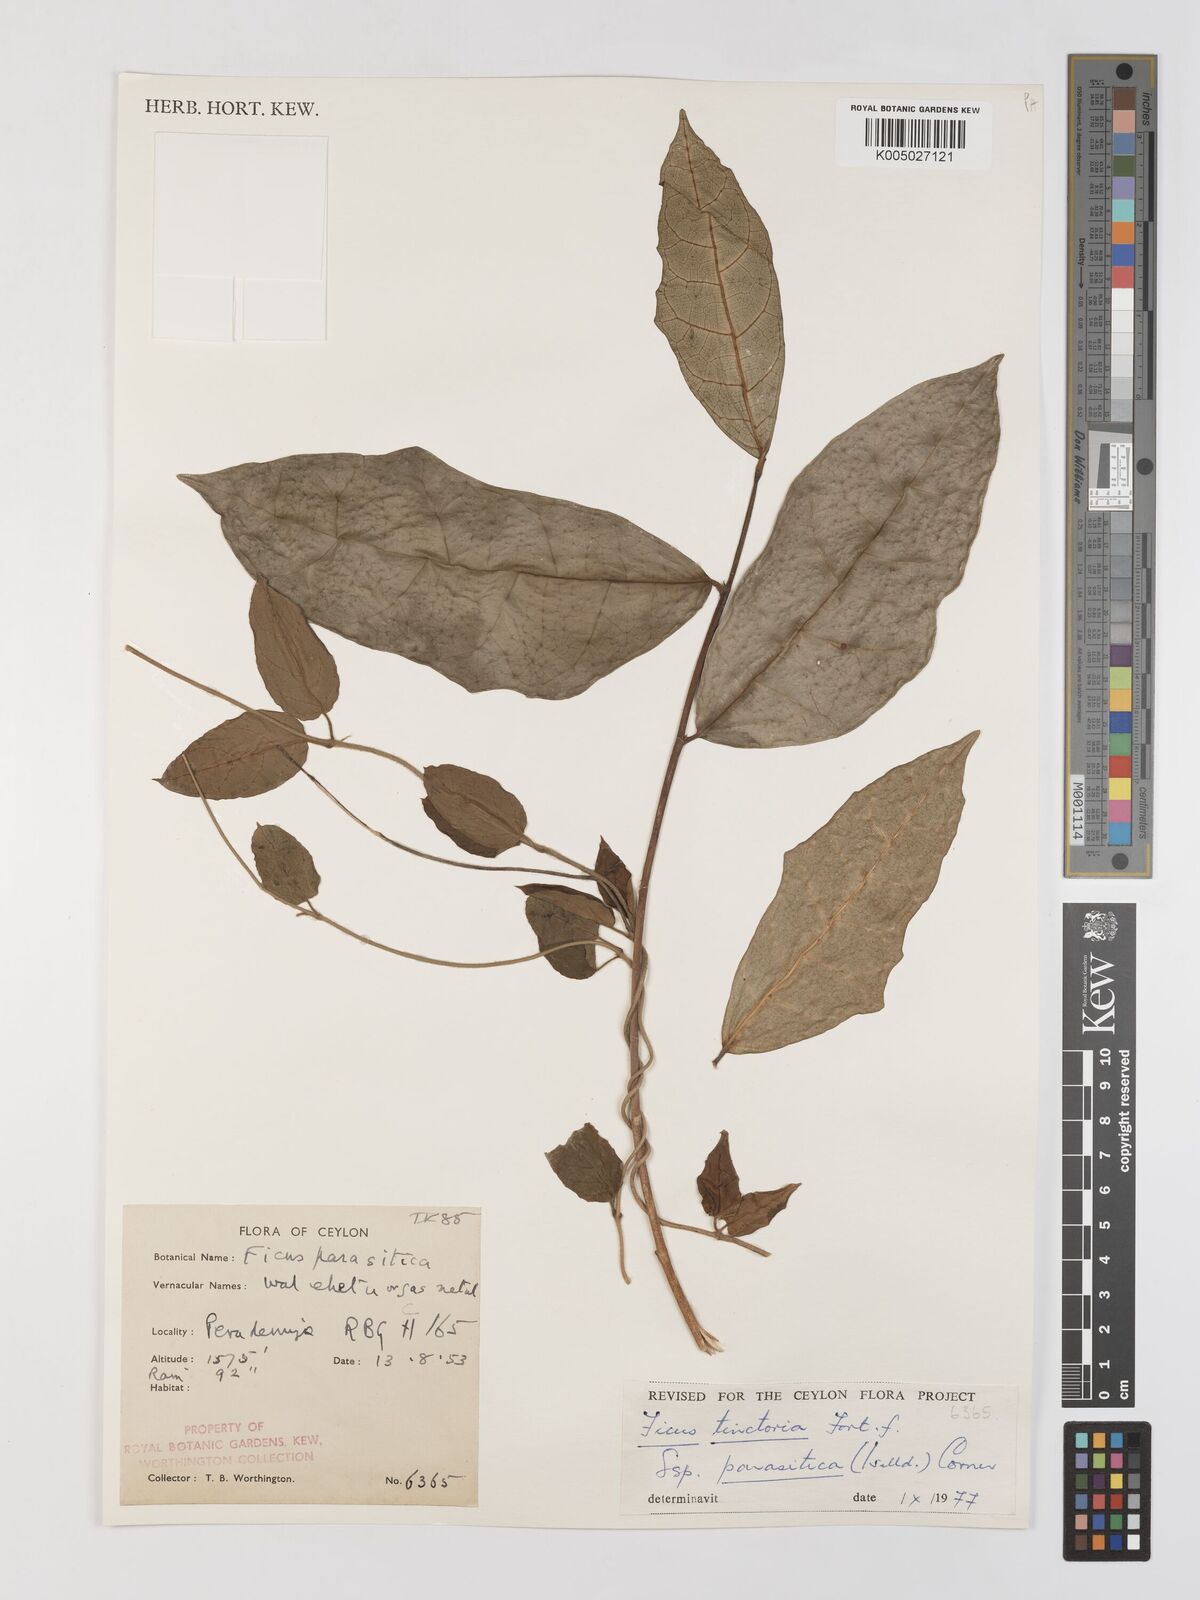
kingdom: Plantae
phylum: Tracheophyta
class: Magnoliopsida
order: Rosales
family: Moraceae
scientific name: Moraceae
